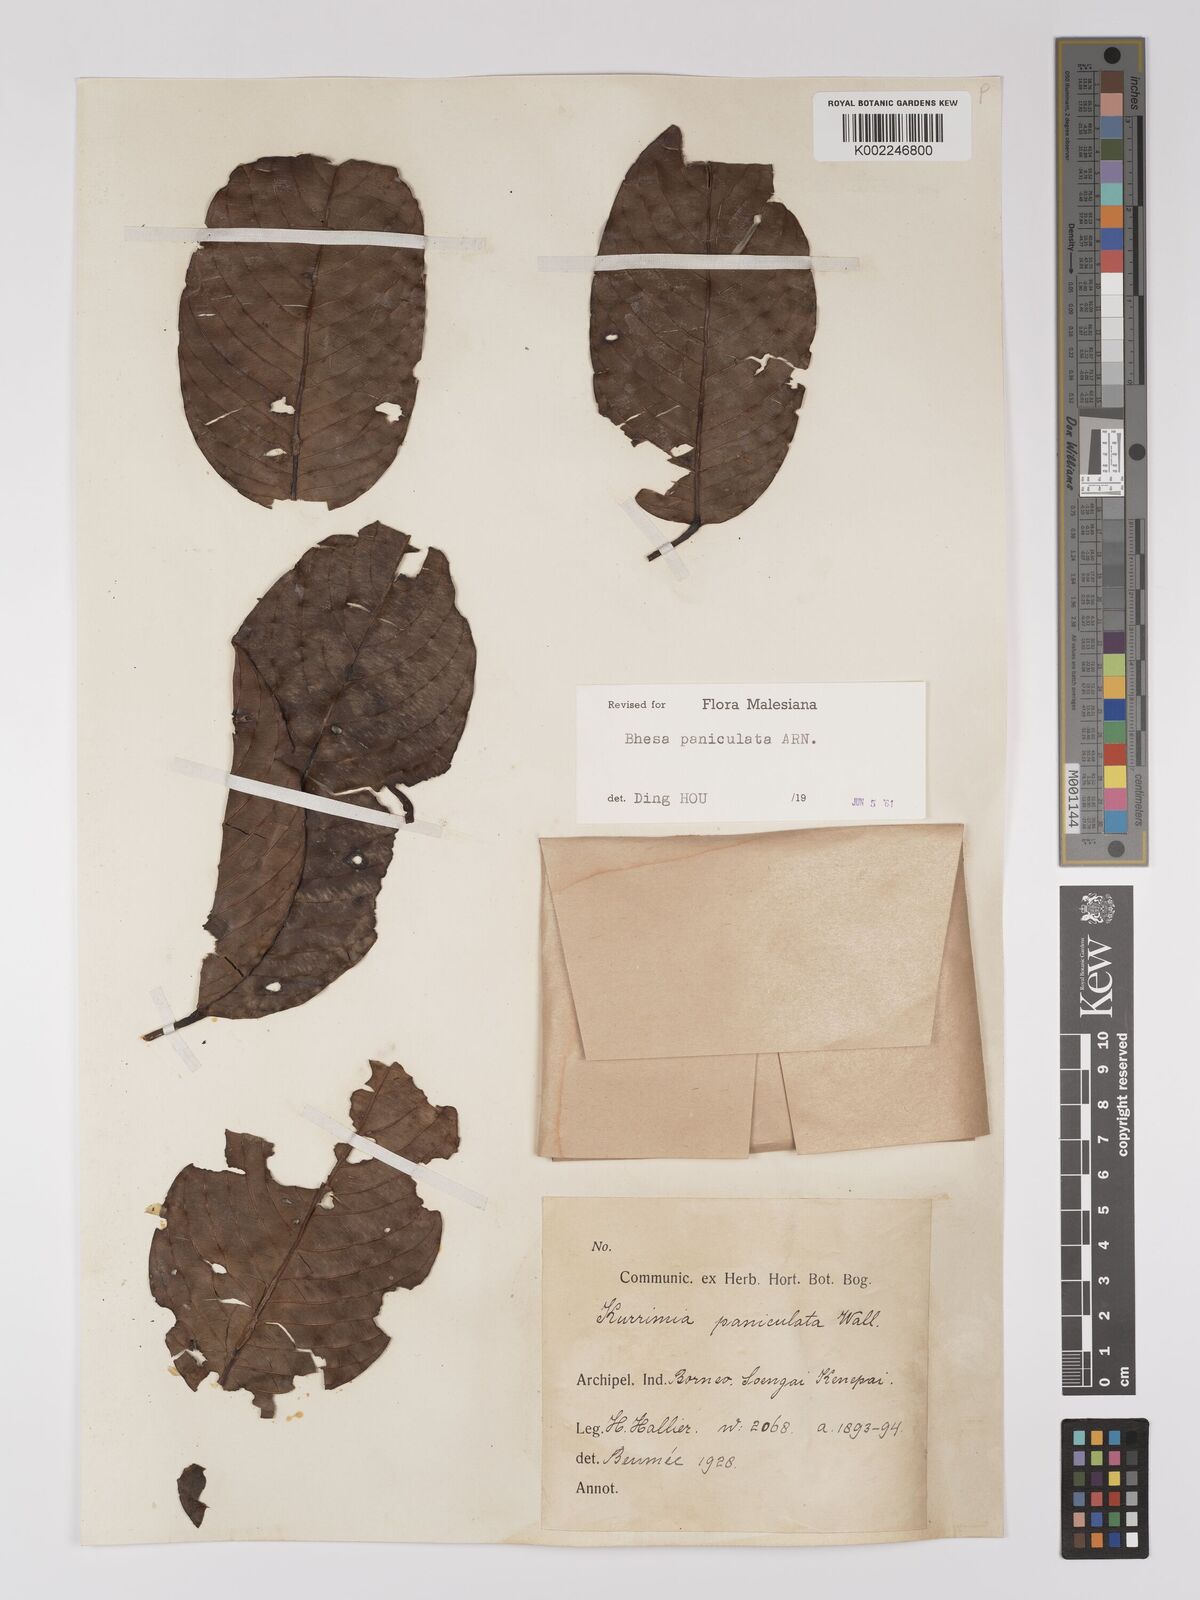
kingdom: Plantae
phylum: Tracheophyta
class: Magnoliopsida
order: Malpighiales
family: Centroplacaceae
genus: Bhesa
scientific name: Bhesa paniculata
